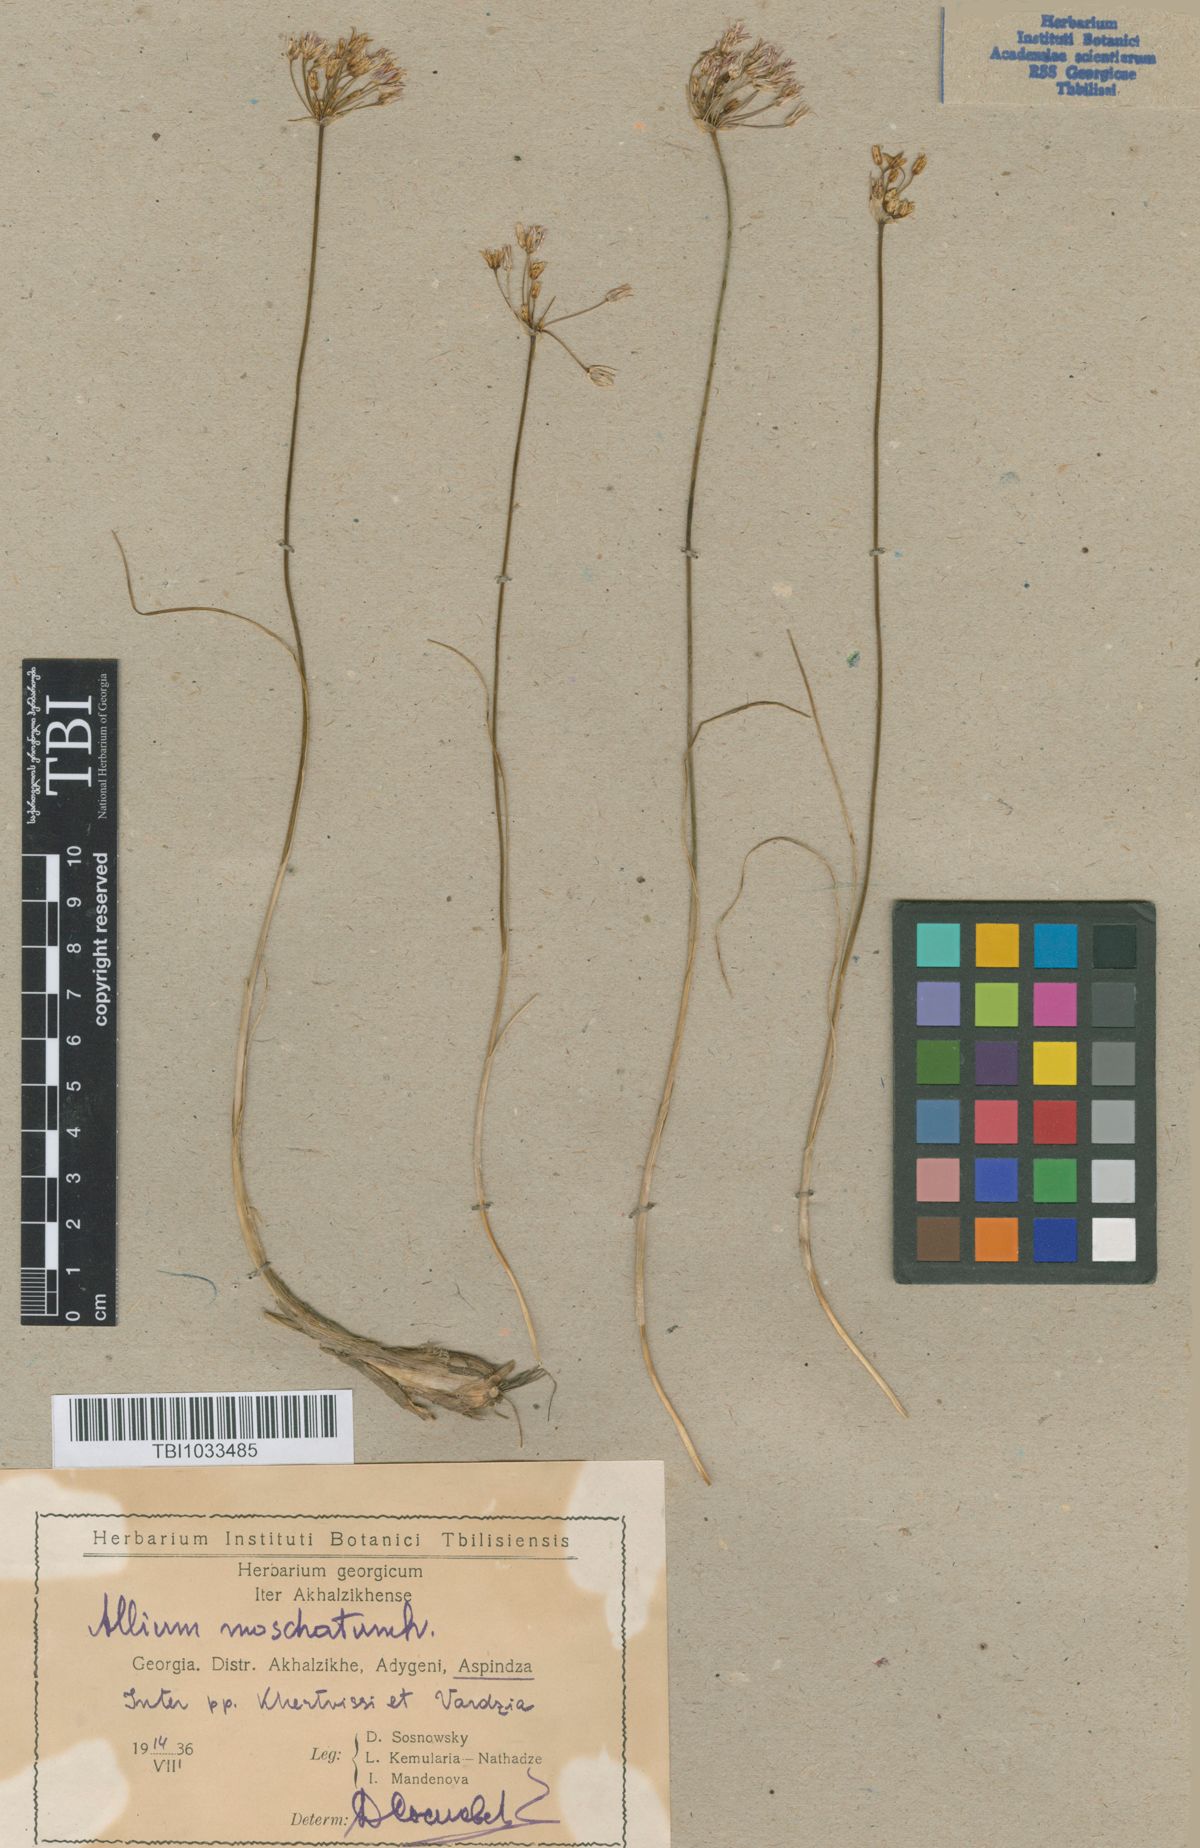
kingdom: Plantae
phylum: Tracheophyta
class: Liliopsida
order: Asparagales
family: Amaryllidaceae
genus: Allium
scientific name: Allium moschatum
